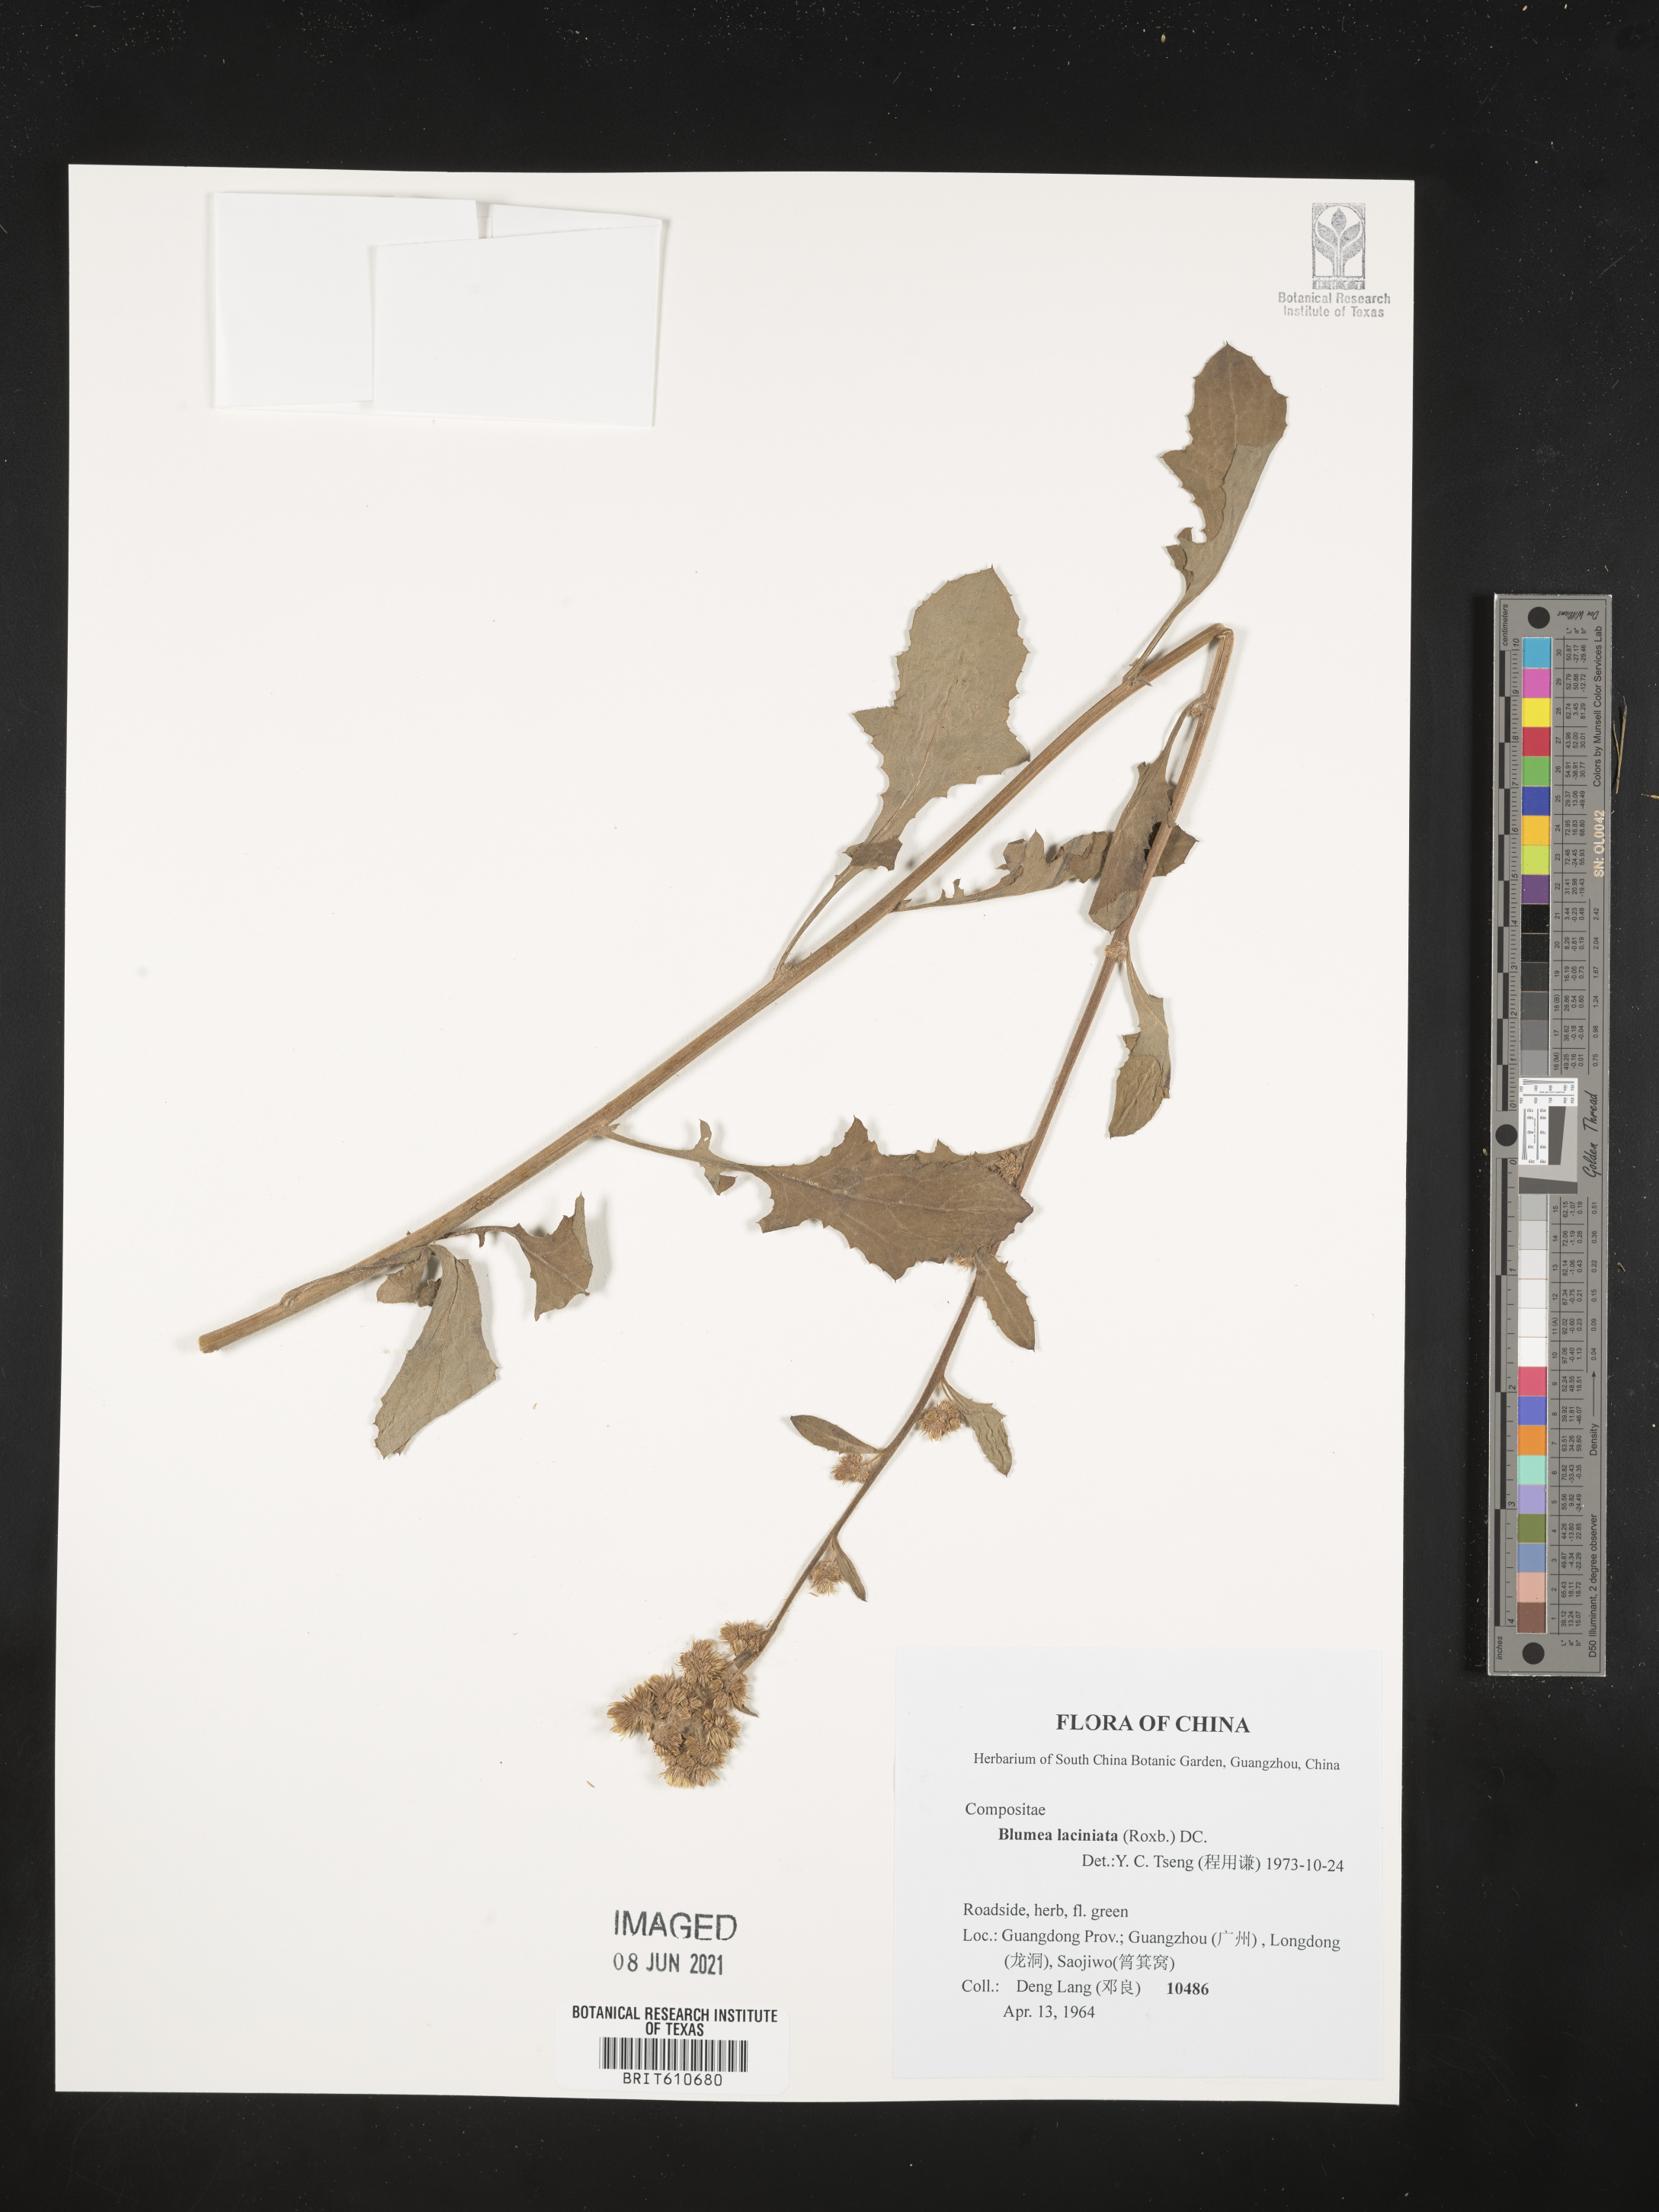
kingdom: Plantae
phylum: Tracheophyta
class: Magnoliopsida
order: Asterales
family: Asteraceae
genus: Blumea
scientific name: Blumea sinuata
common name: Cutleaf false oxtongue
